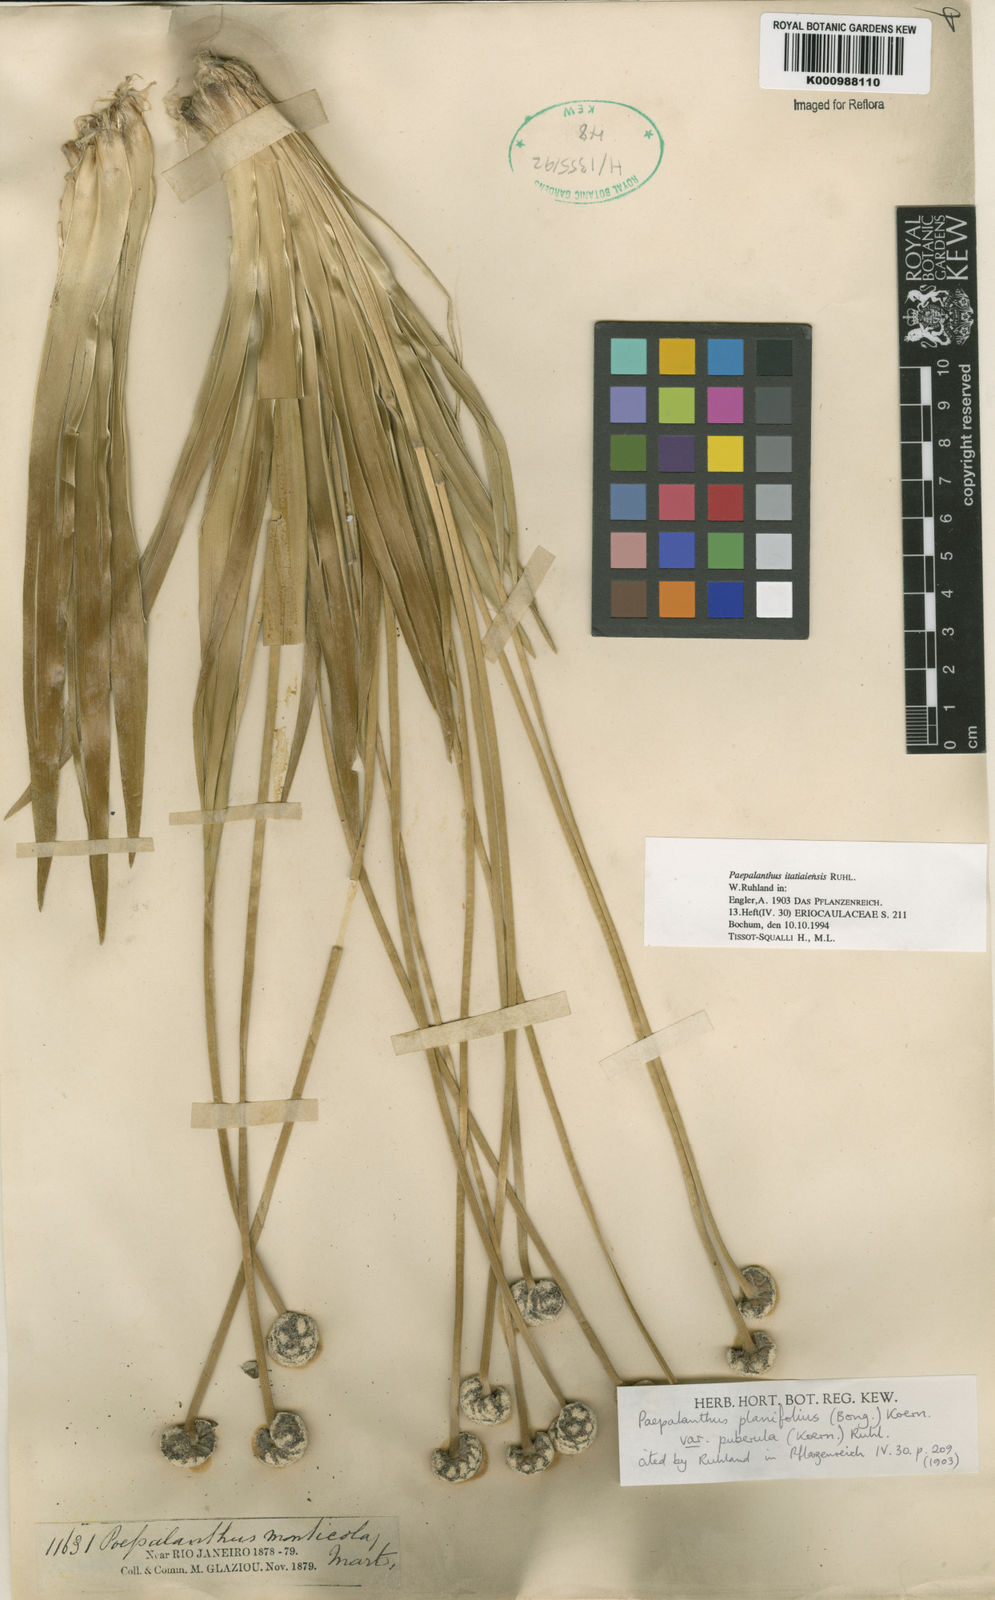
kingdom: Plantae
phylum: Tracheophyta
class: Liliopsida
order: Poales
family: Eriocaulaceae
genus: Paepalanthus
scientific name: Paepalanthus itatiaiensis
